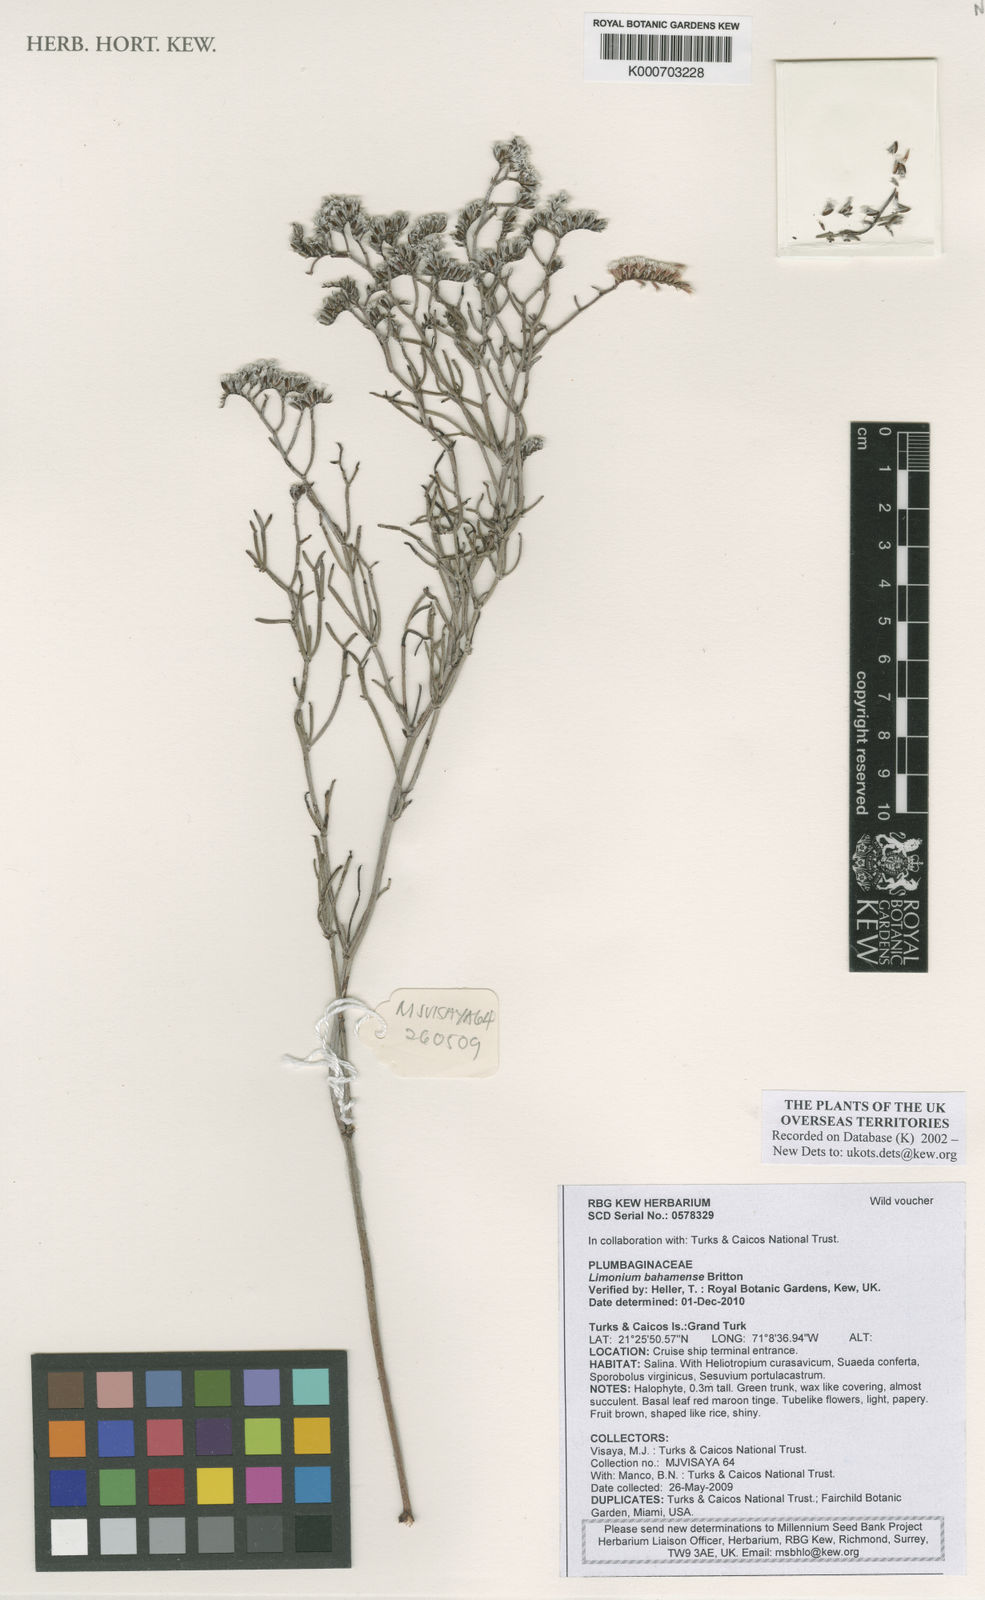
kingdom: Plantae
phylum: Tracheophyta
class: Magnoliopsida
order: Caryophyllales
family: Plumbaginaceae
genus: Limonium
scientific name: Limonium bahamense
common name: Heather
